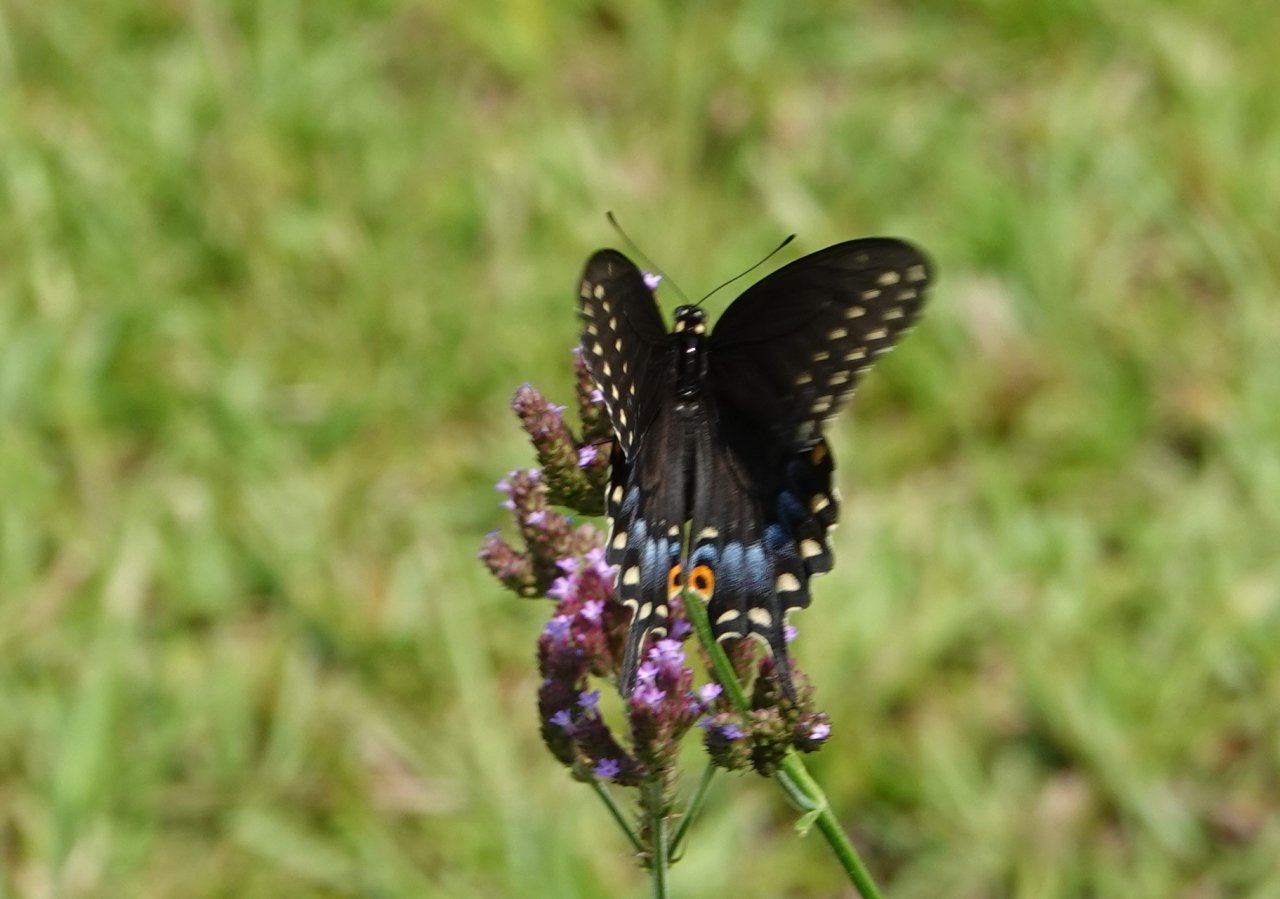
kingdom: Animalia
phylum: Arthropoda
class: Insecta
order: Lepidoptera
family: Papilionidae
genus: Papilio
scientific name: Papilio polyxenes
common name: Black Swallowtail
